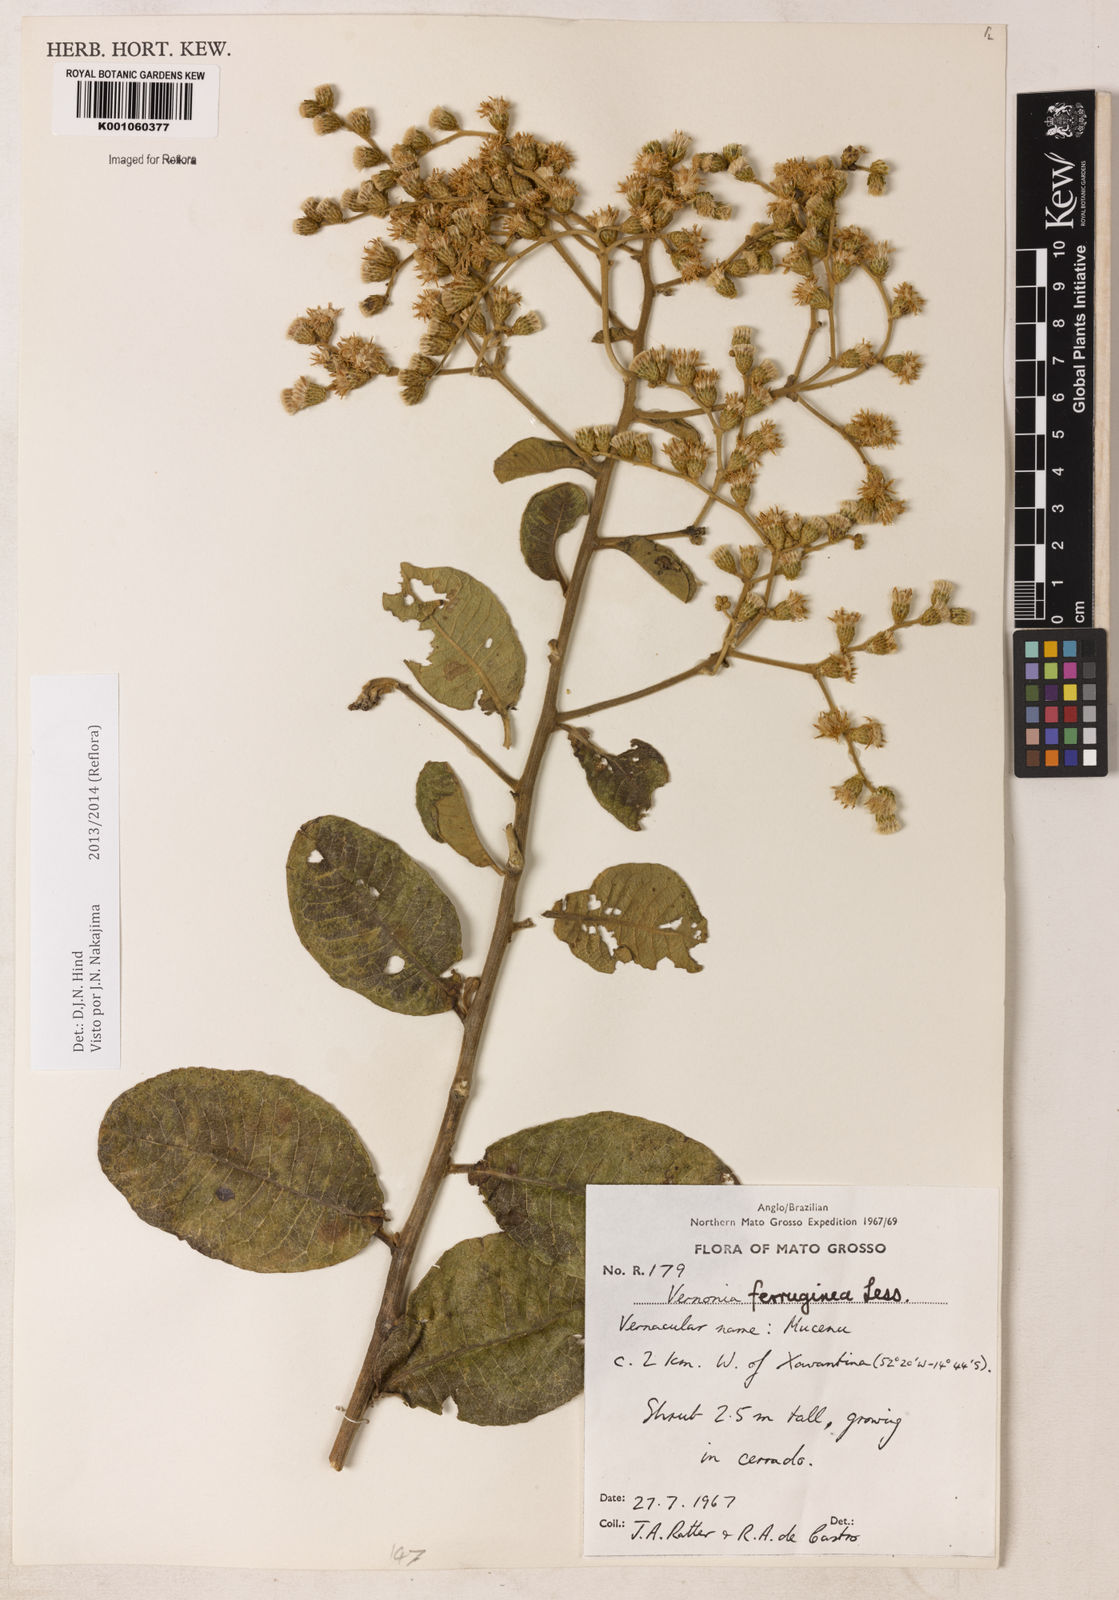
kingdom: Plantae
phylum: Tracheophyta
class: Magnoliopsida
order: Asterales
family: Asteraceae
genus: Vernonanthura
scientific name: Vernonanthura ferruginea
